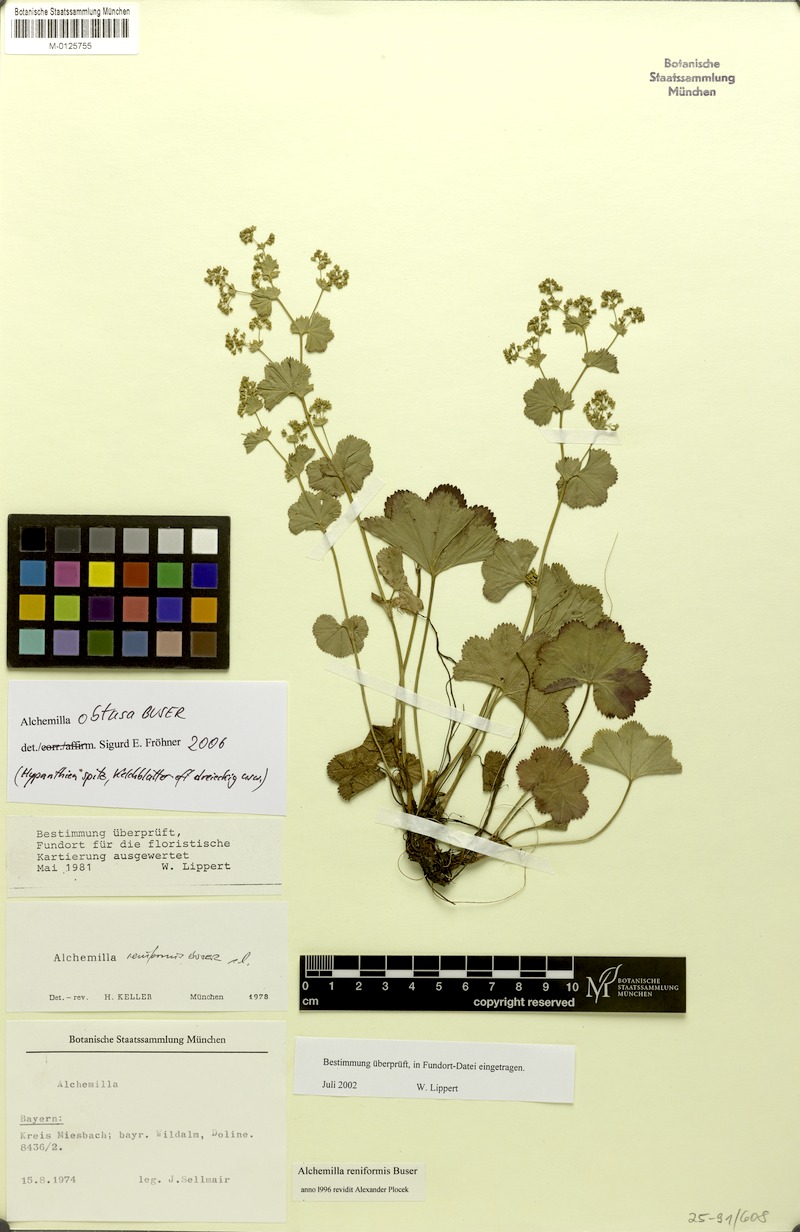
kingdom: Plantae
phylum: Tracheophyta
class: Magnoliopsida
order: Rosales
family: Rosaceae
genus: Alchemilla
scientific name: Alchemilla obtusa
